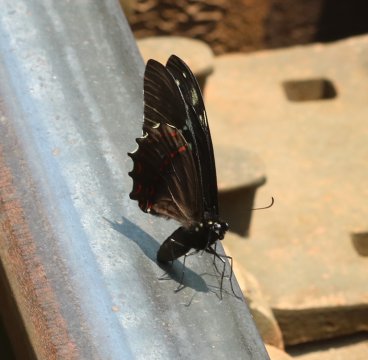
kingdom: Animalia
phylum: Arthropoda
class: Insecta
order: Lepidoptera
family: Papilionidae
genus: Pterourus
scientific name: Pterourus victorinus
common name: Victorine Swallowtail
